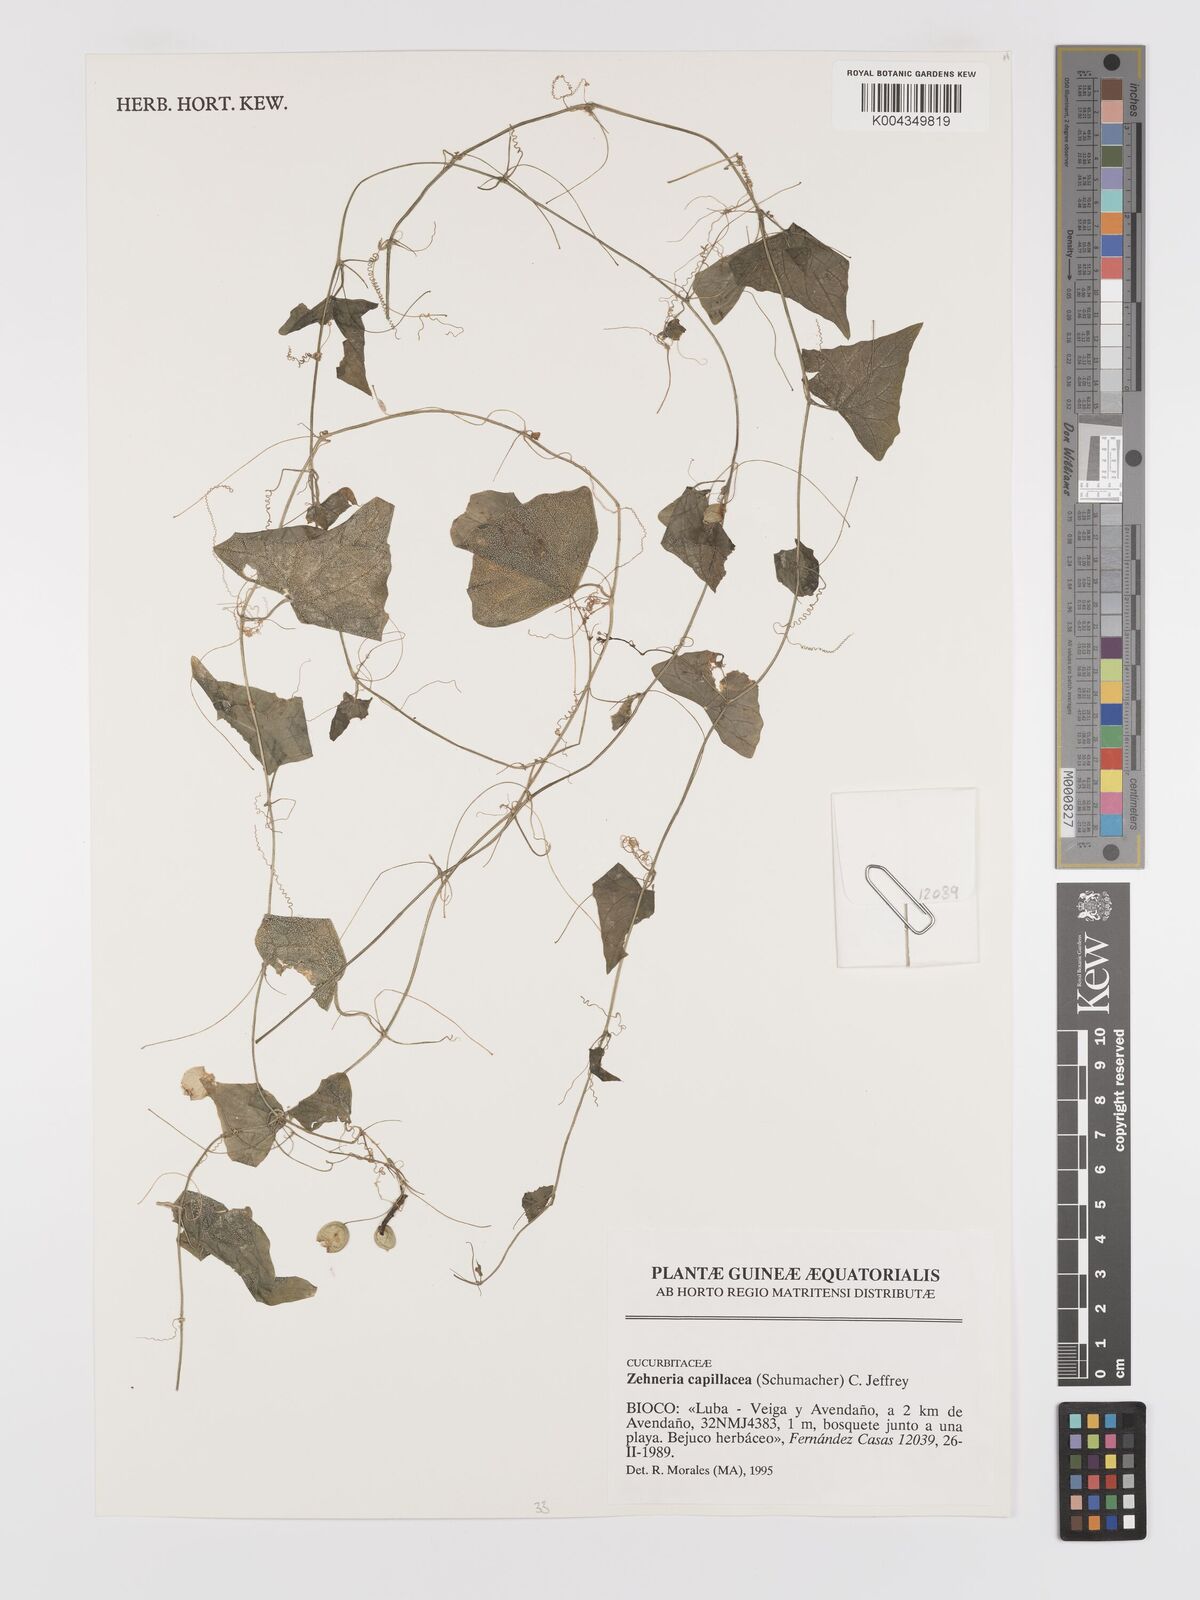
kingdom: Plantae
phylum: Tracheophyta
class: Magnoliopsida
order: Cucurbitales
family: Cucurbitaceae
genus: Zehneria
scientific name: Zehneria capillacea
